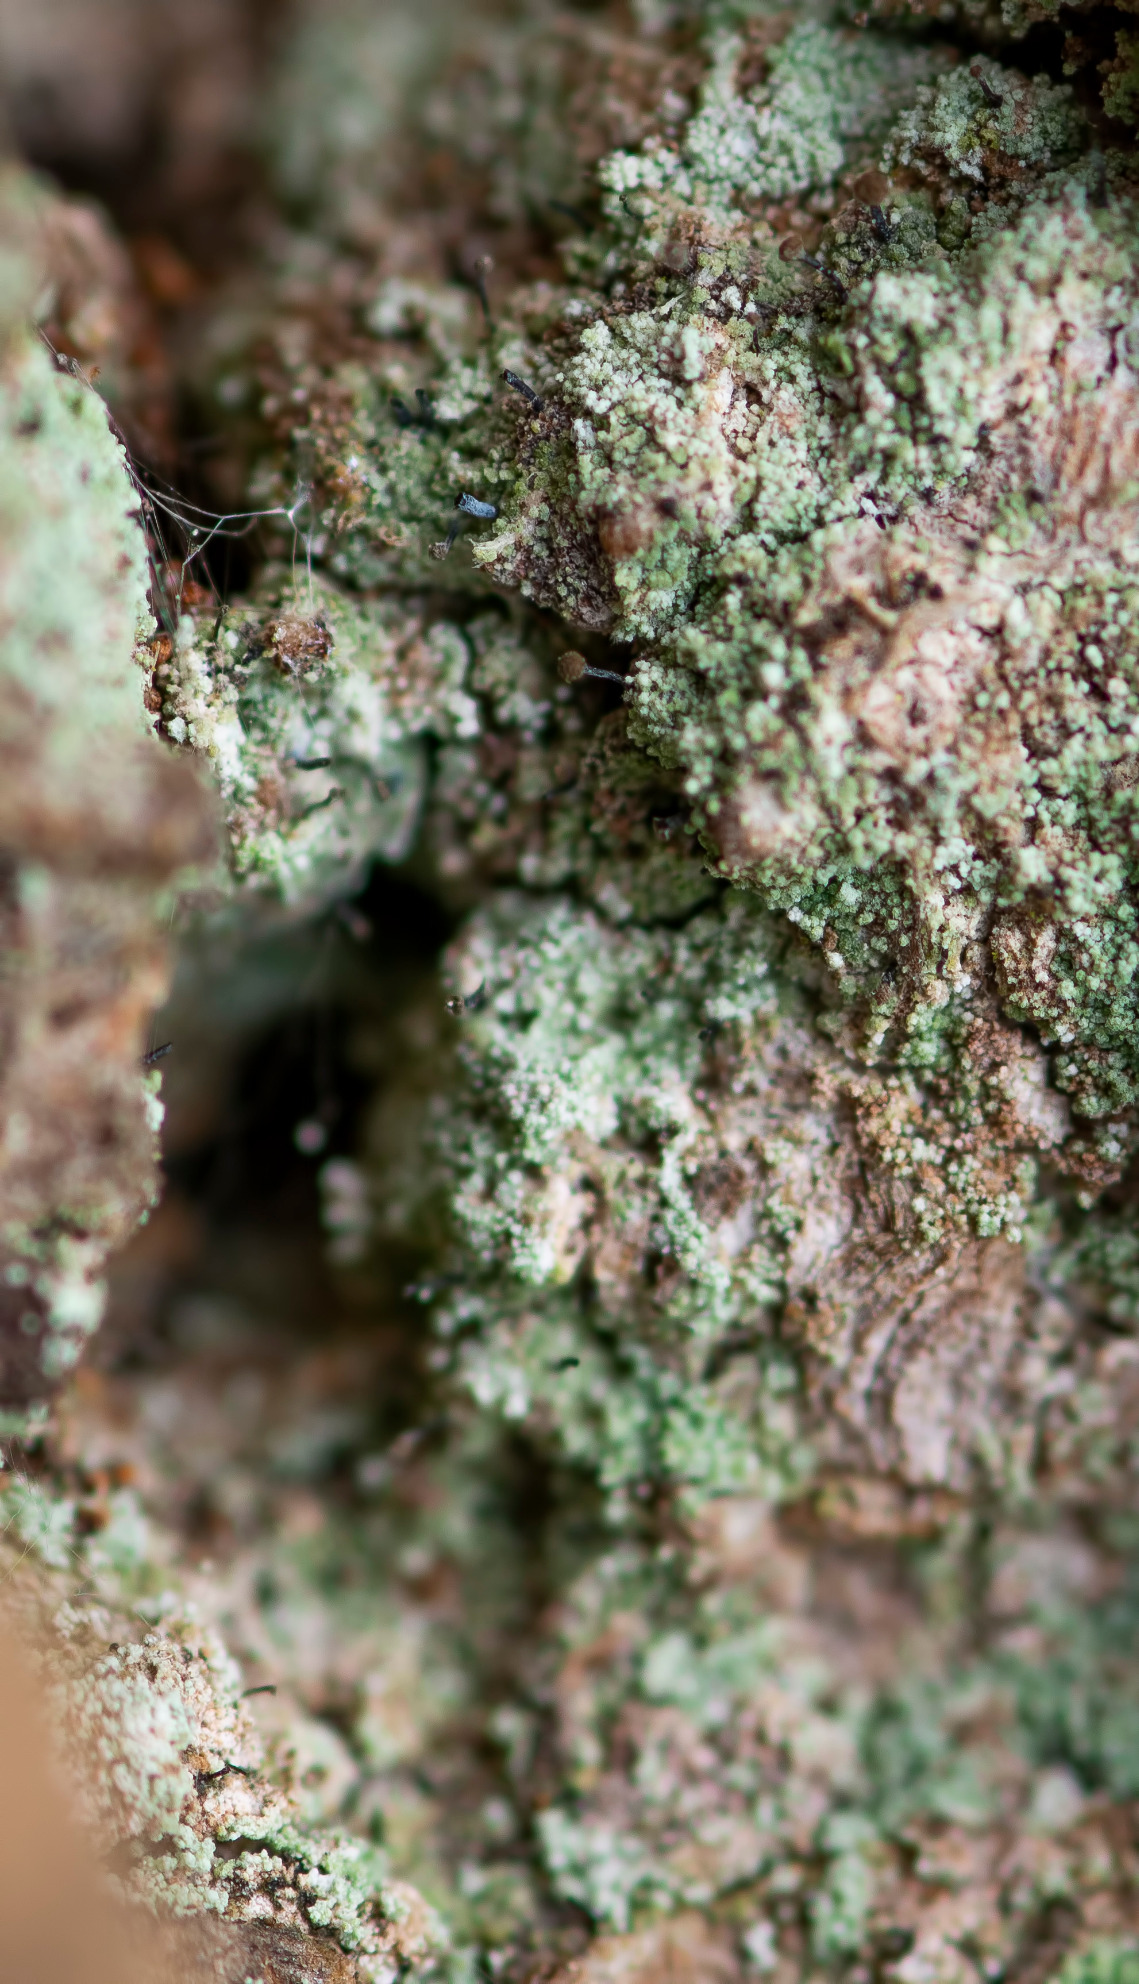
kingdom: Fungi
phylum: Ascomycota
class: Coniocybomycetes
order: Coniocybales
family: Coniocybaceae
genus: Chaenotheca
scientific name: Chaenotheca trichialis
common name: Grå knappenålslav
